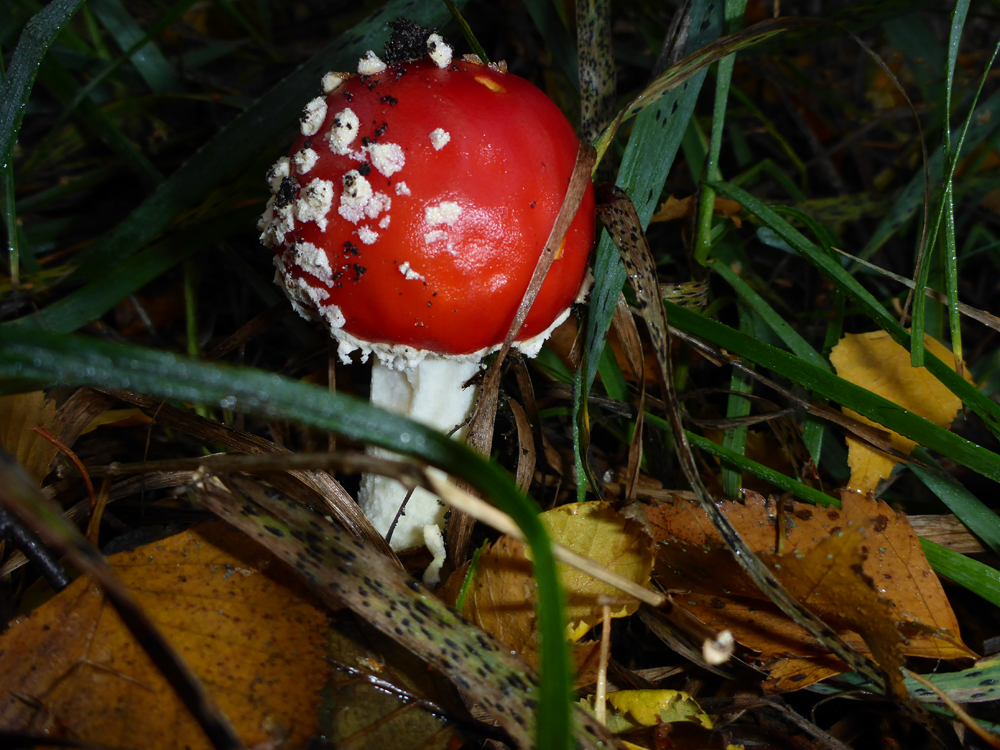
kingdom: Fungi
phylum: Basidiomycota
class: Agaricomycetes
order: Agaricales
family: Amanitaceae
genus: Amanita
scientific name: Amanita muscaria
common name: Fly agaric
